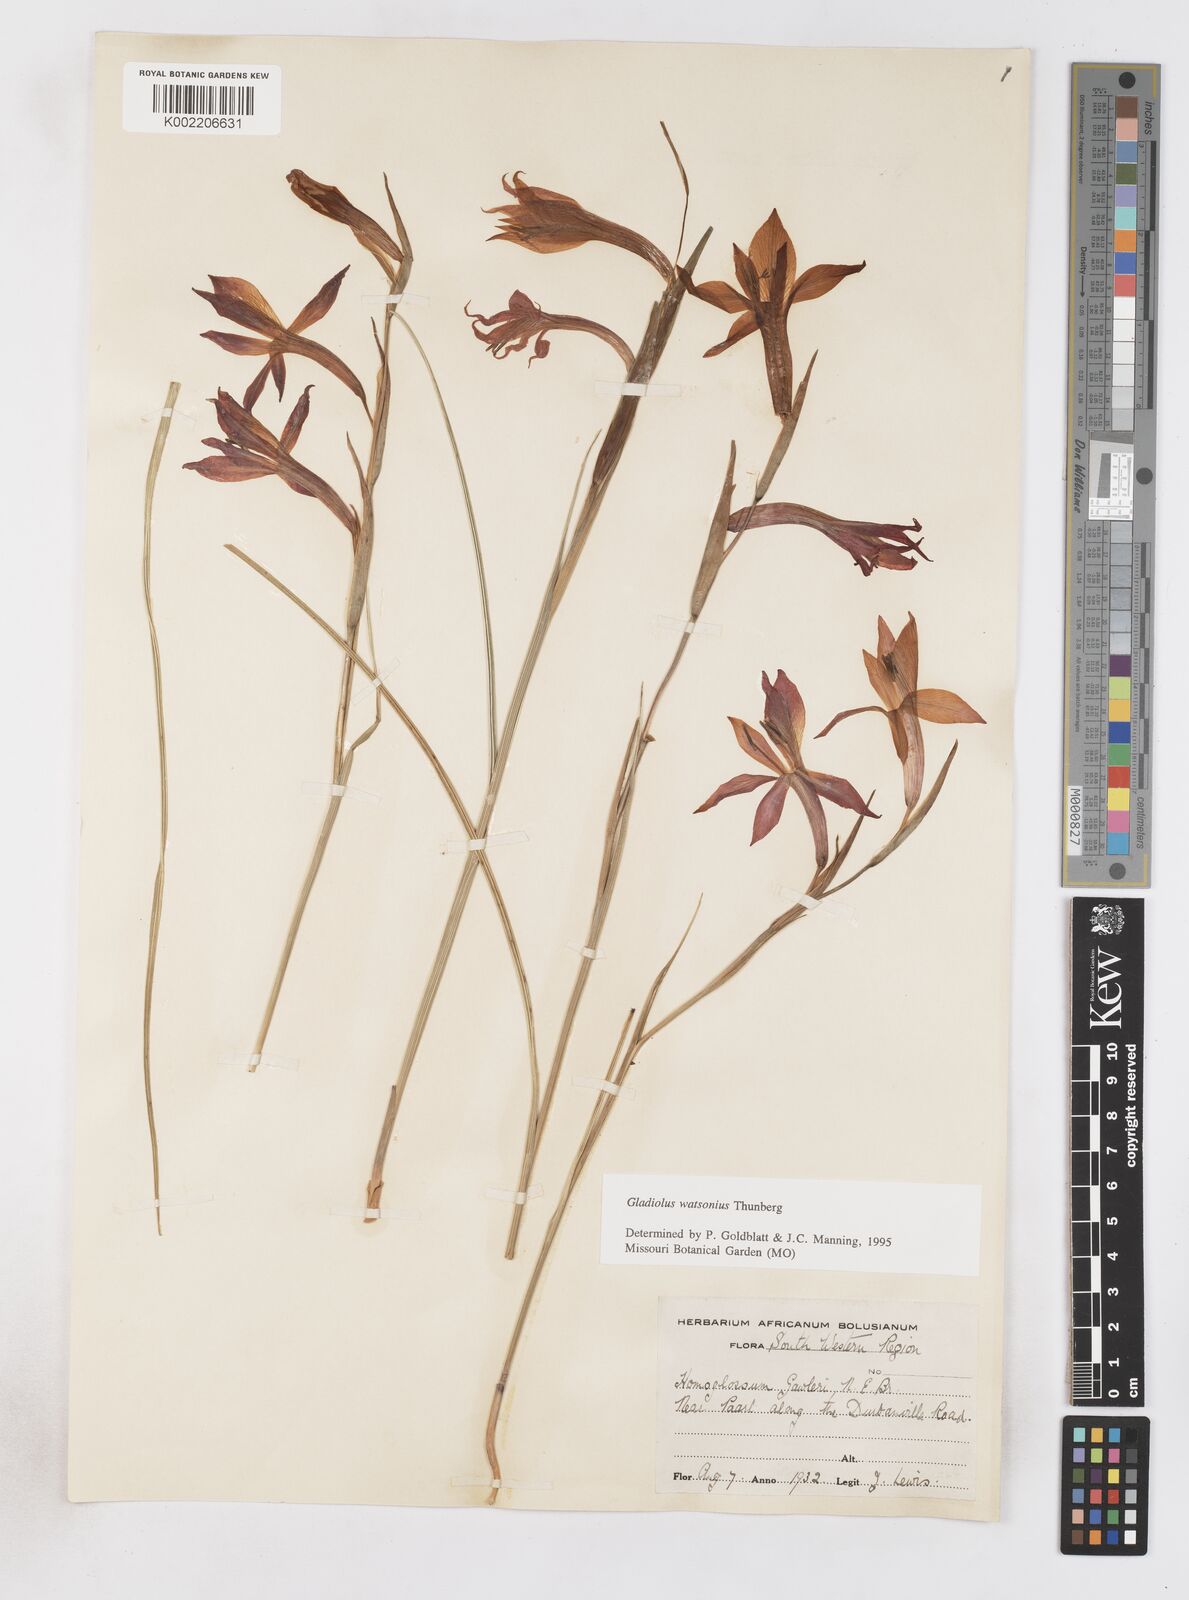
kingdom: Plantae
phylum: Tracheophyta
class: Liliopsida
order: Asparagales
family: Iridaceae
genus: Gladiolus
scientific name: Gladiolus watsonius
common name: Red afrikaner
